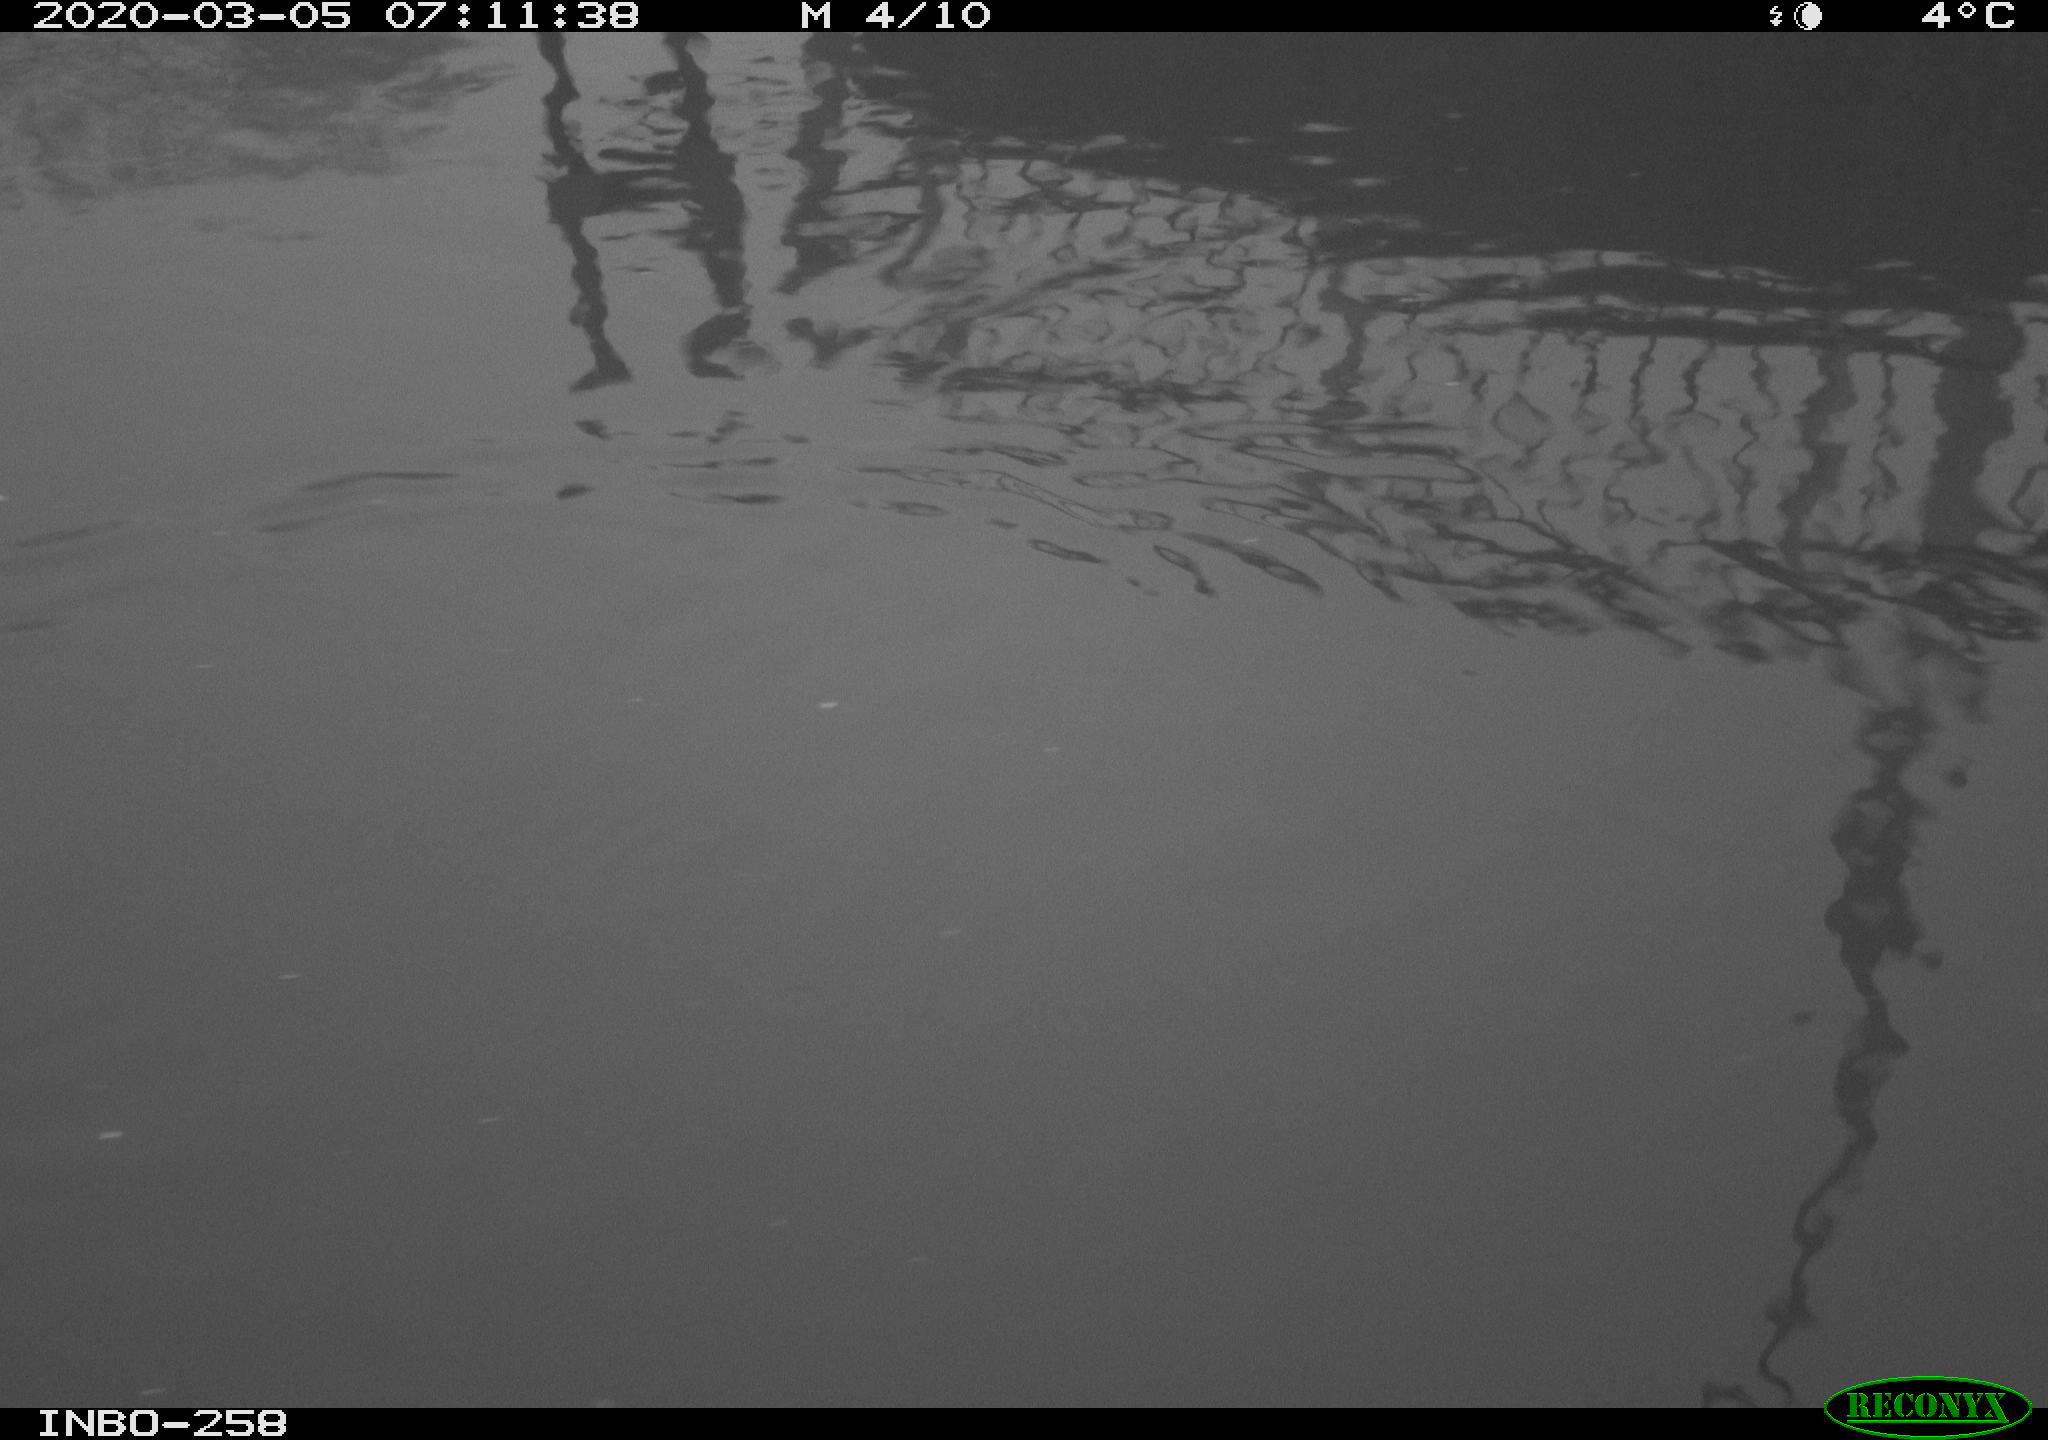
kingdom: Animalia
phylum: Chordata
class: Aves
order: Gruiformes
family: Rallidae
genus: Gallinula
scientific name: Gallinula chloropus
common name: Common moorhen
